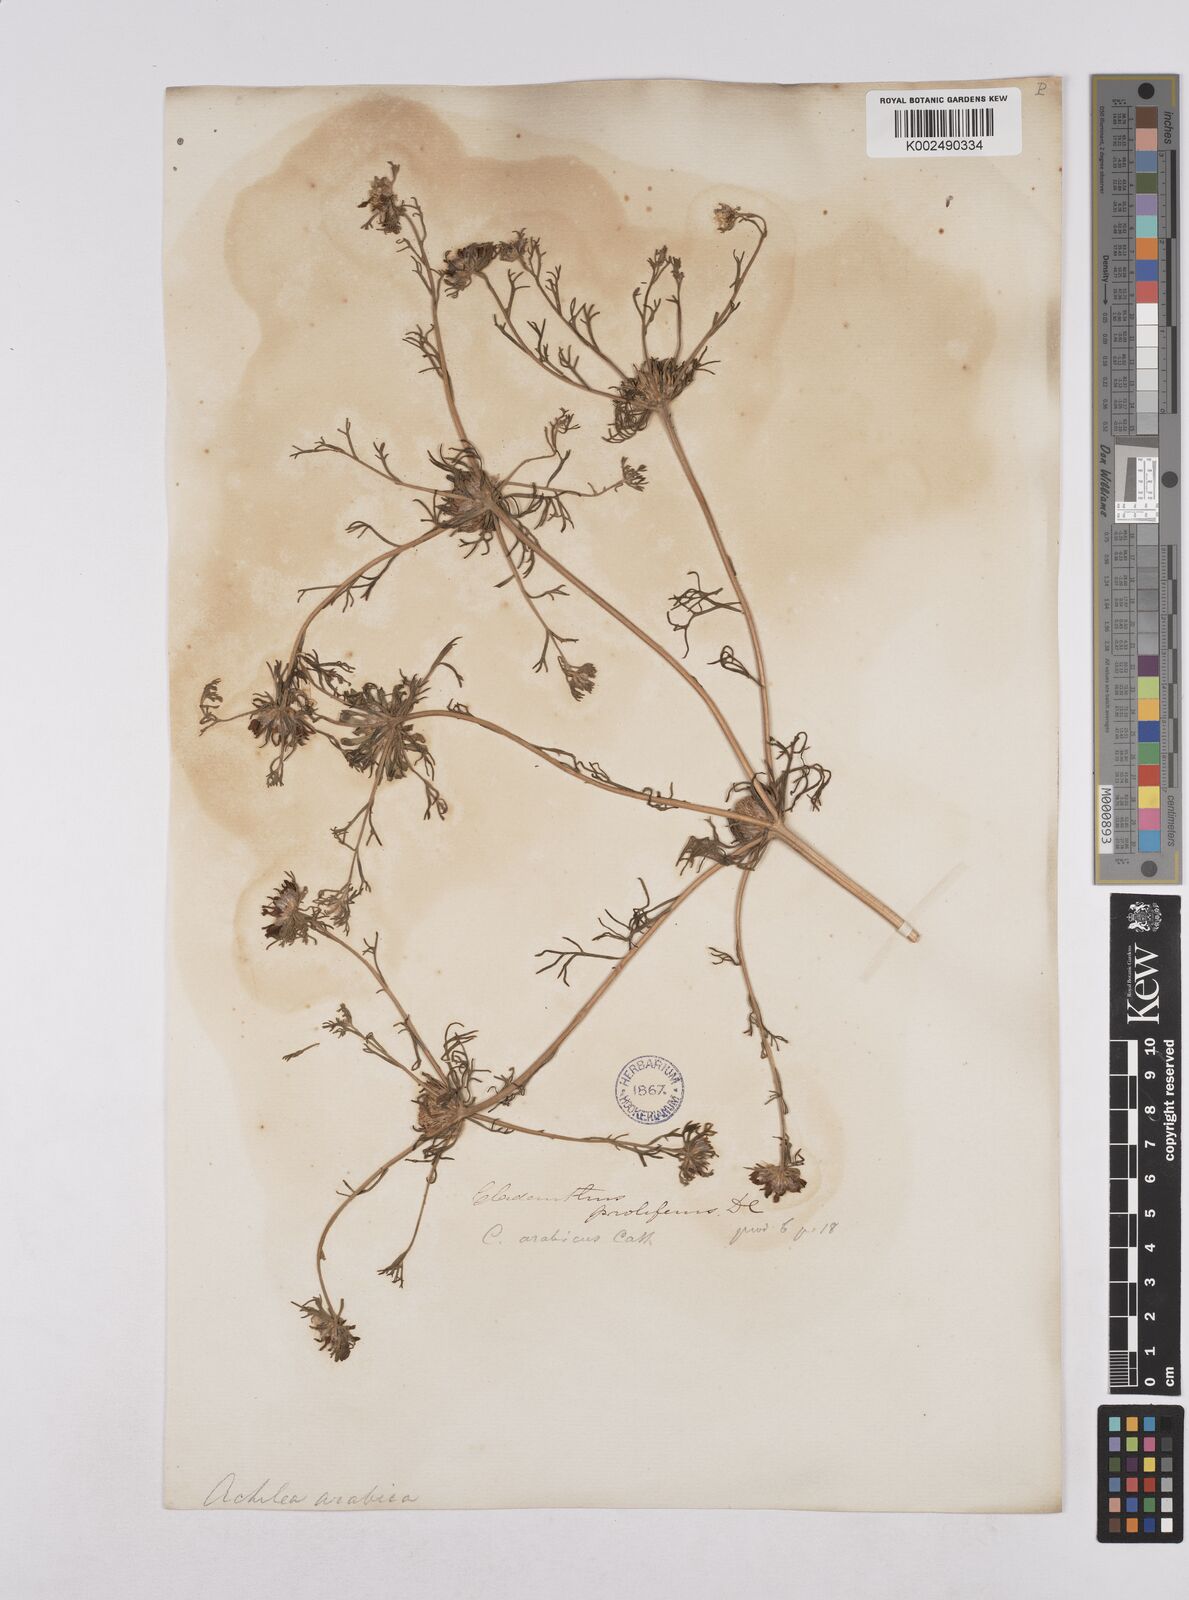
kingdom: Plantae
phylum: Tracheophyta
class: Magnoliopsida
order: Asterales
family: Asteraceae
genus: Cladanthus
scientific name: Cladanthus arabicus
